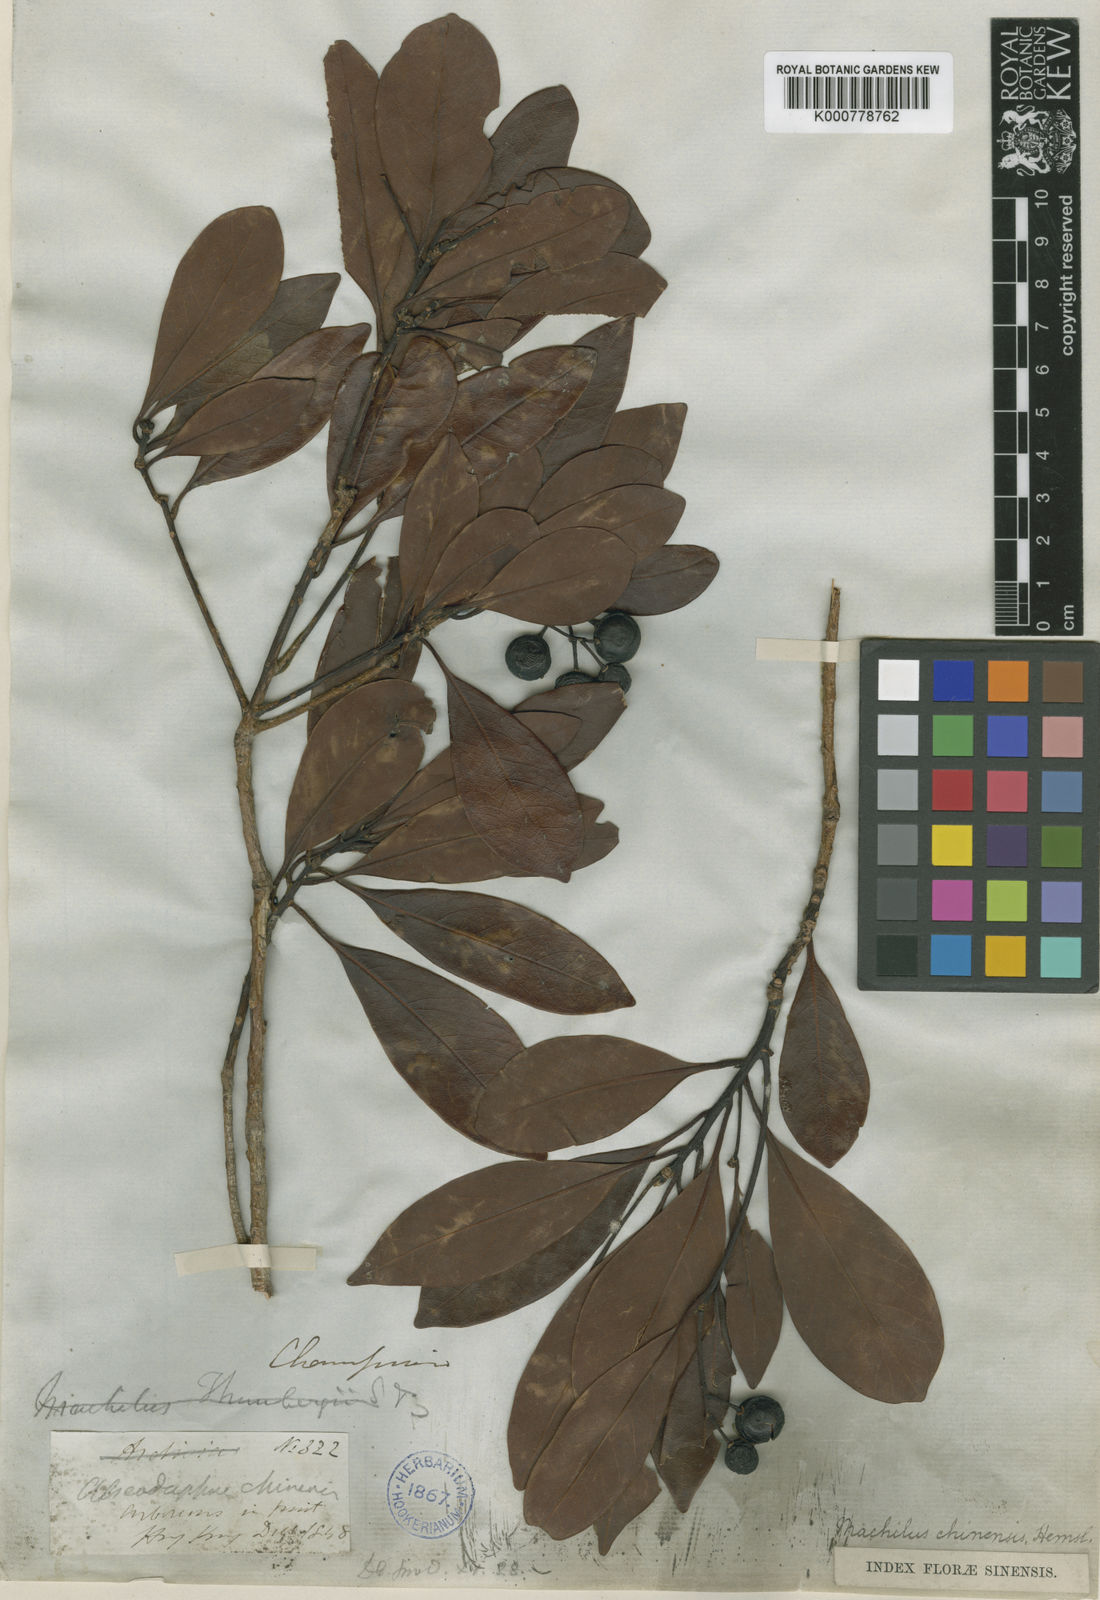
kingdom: Plantae
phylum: Tracheophyta
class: Magnoliopsida
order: Laurales
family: Lauraceae
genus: Machilus
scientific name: Machilus chienkweiensis
